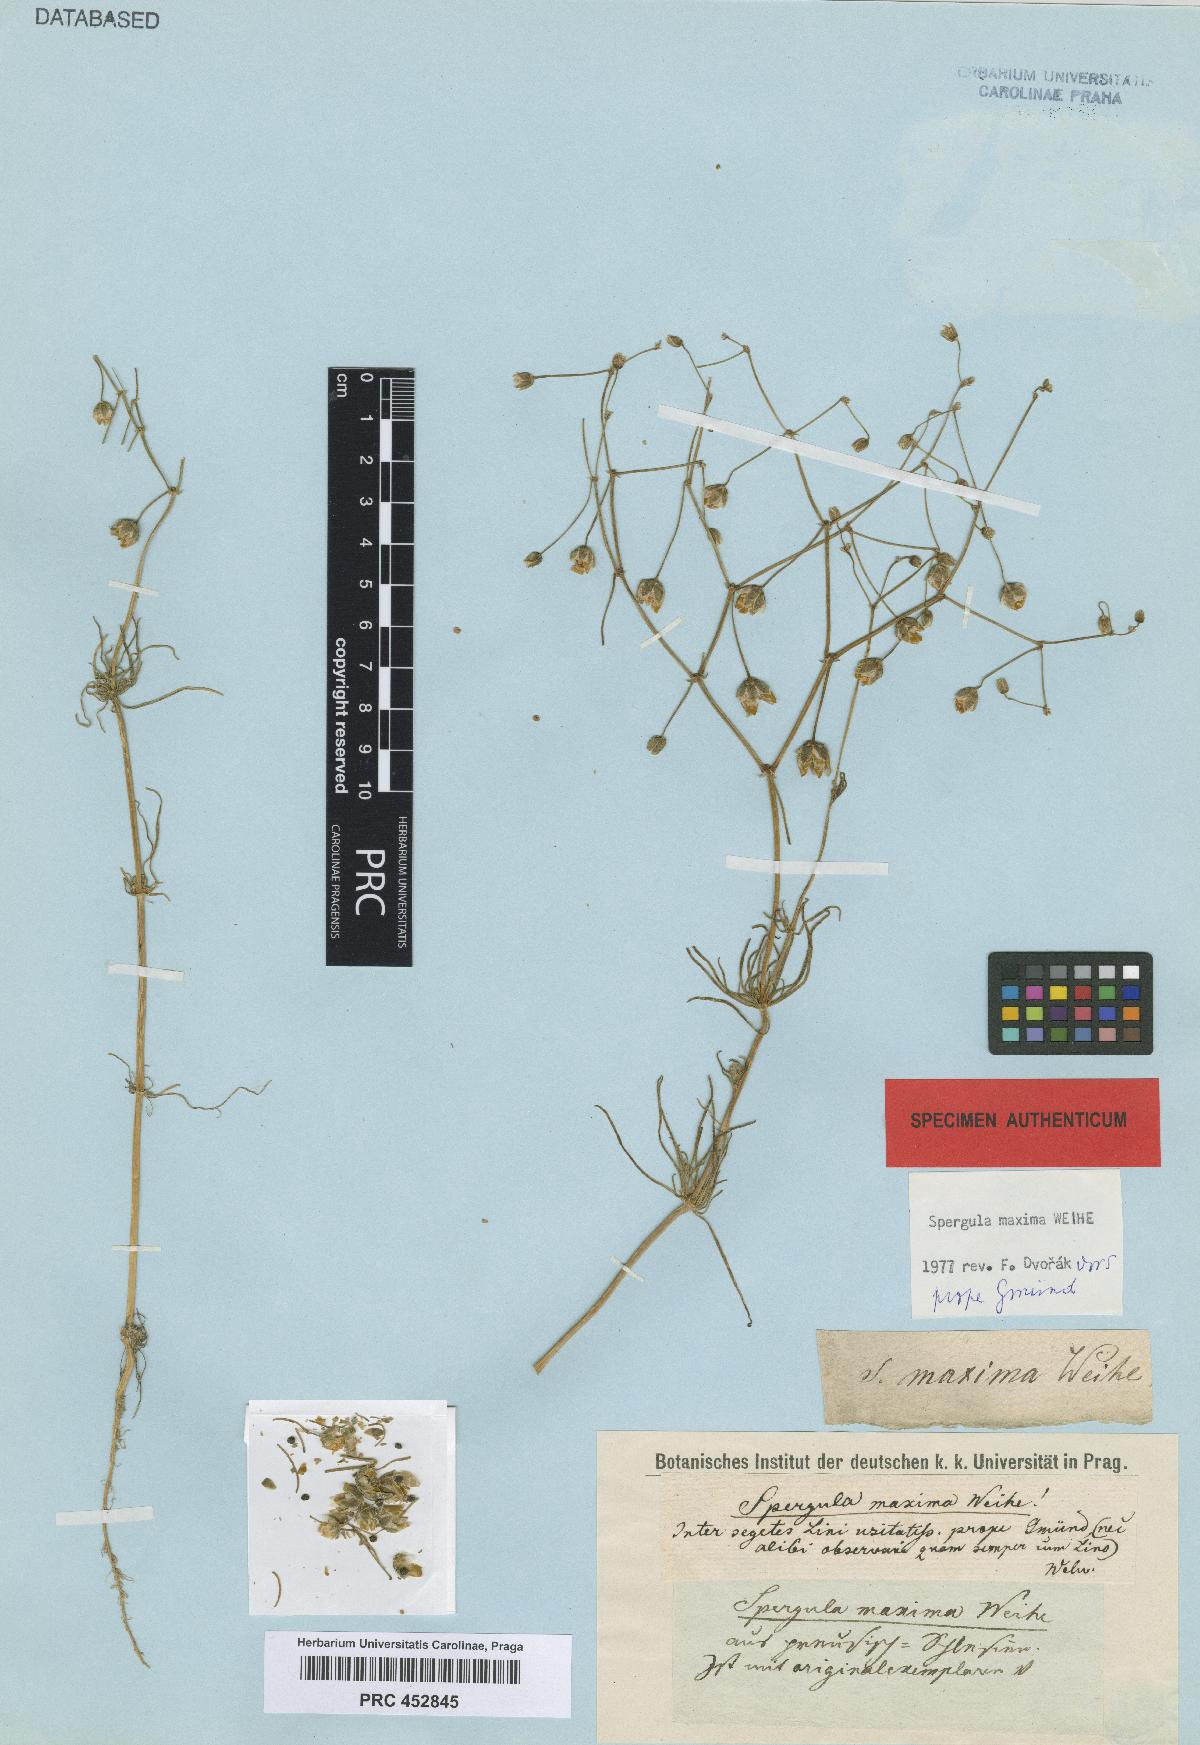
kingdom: Plantae
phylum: Tracheophyta
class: Magnoliopsida
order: Caryophyllales
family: Caryophyllaceae
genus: Spergula
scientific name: Spergula arvensis
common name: Corn spurrey
